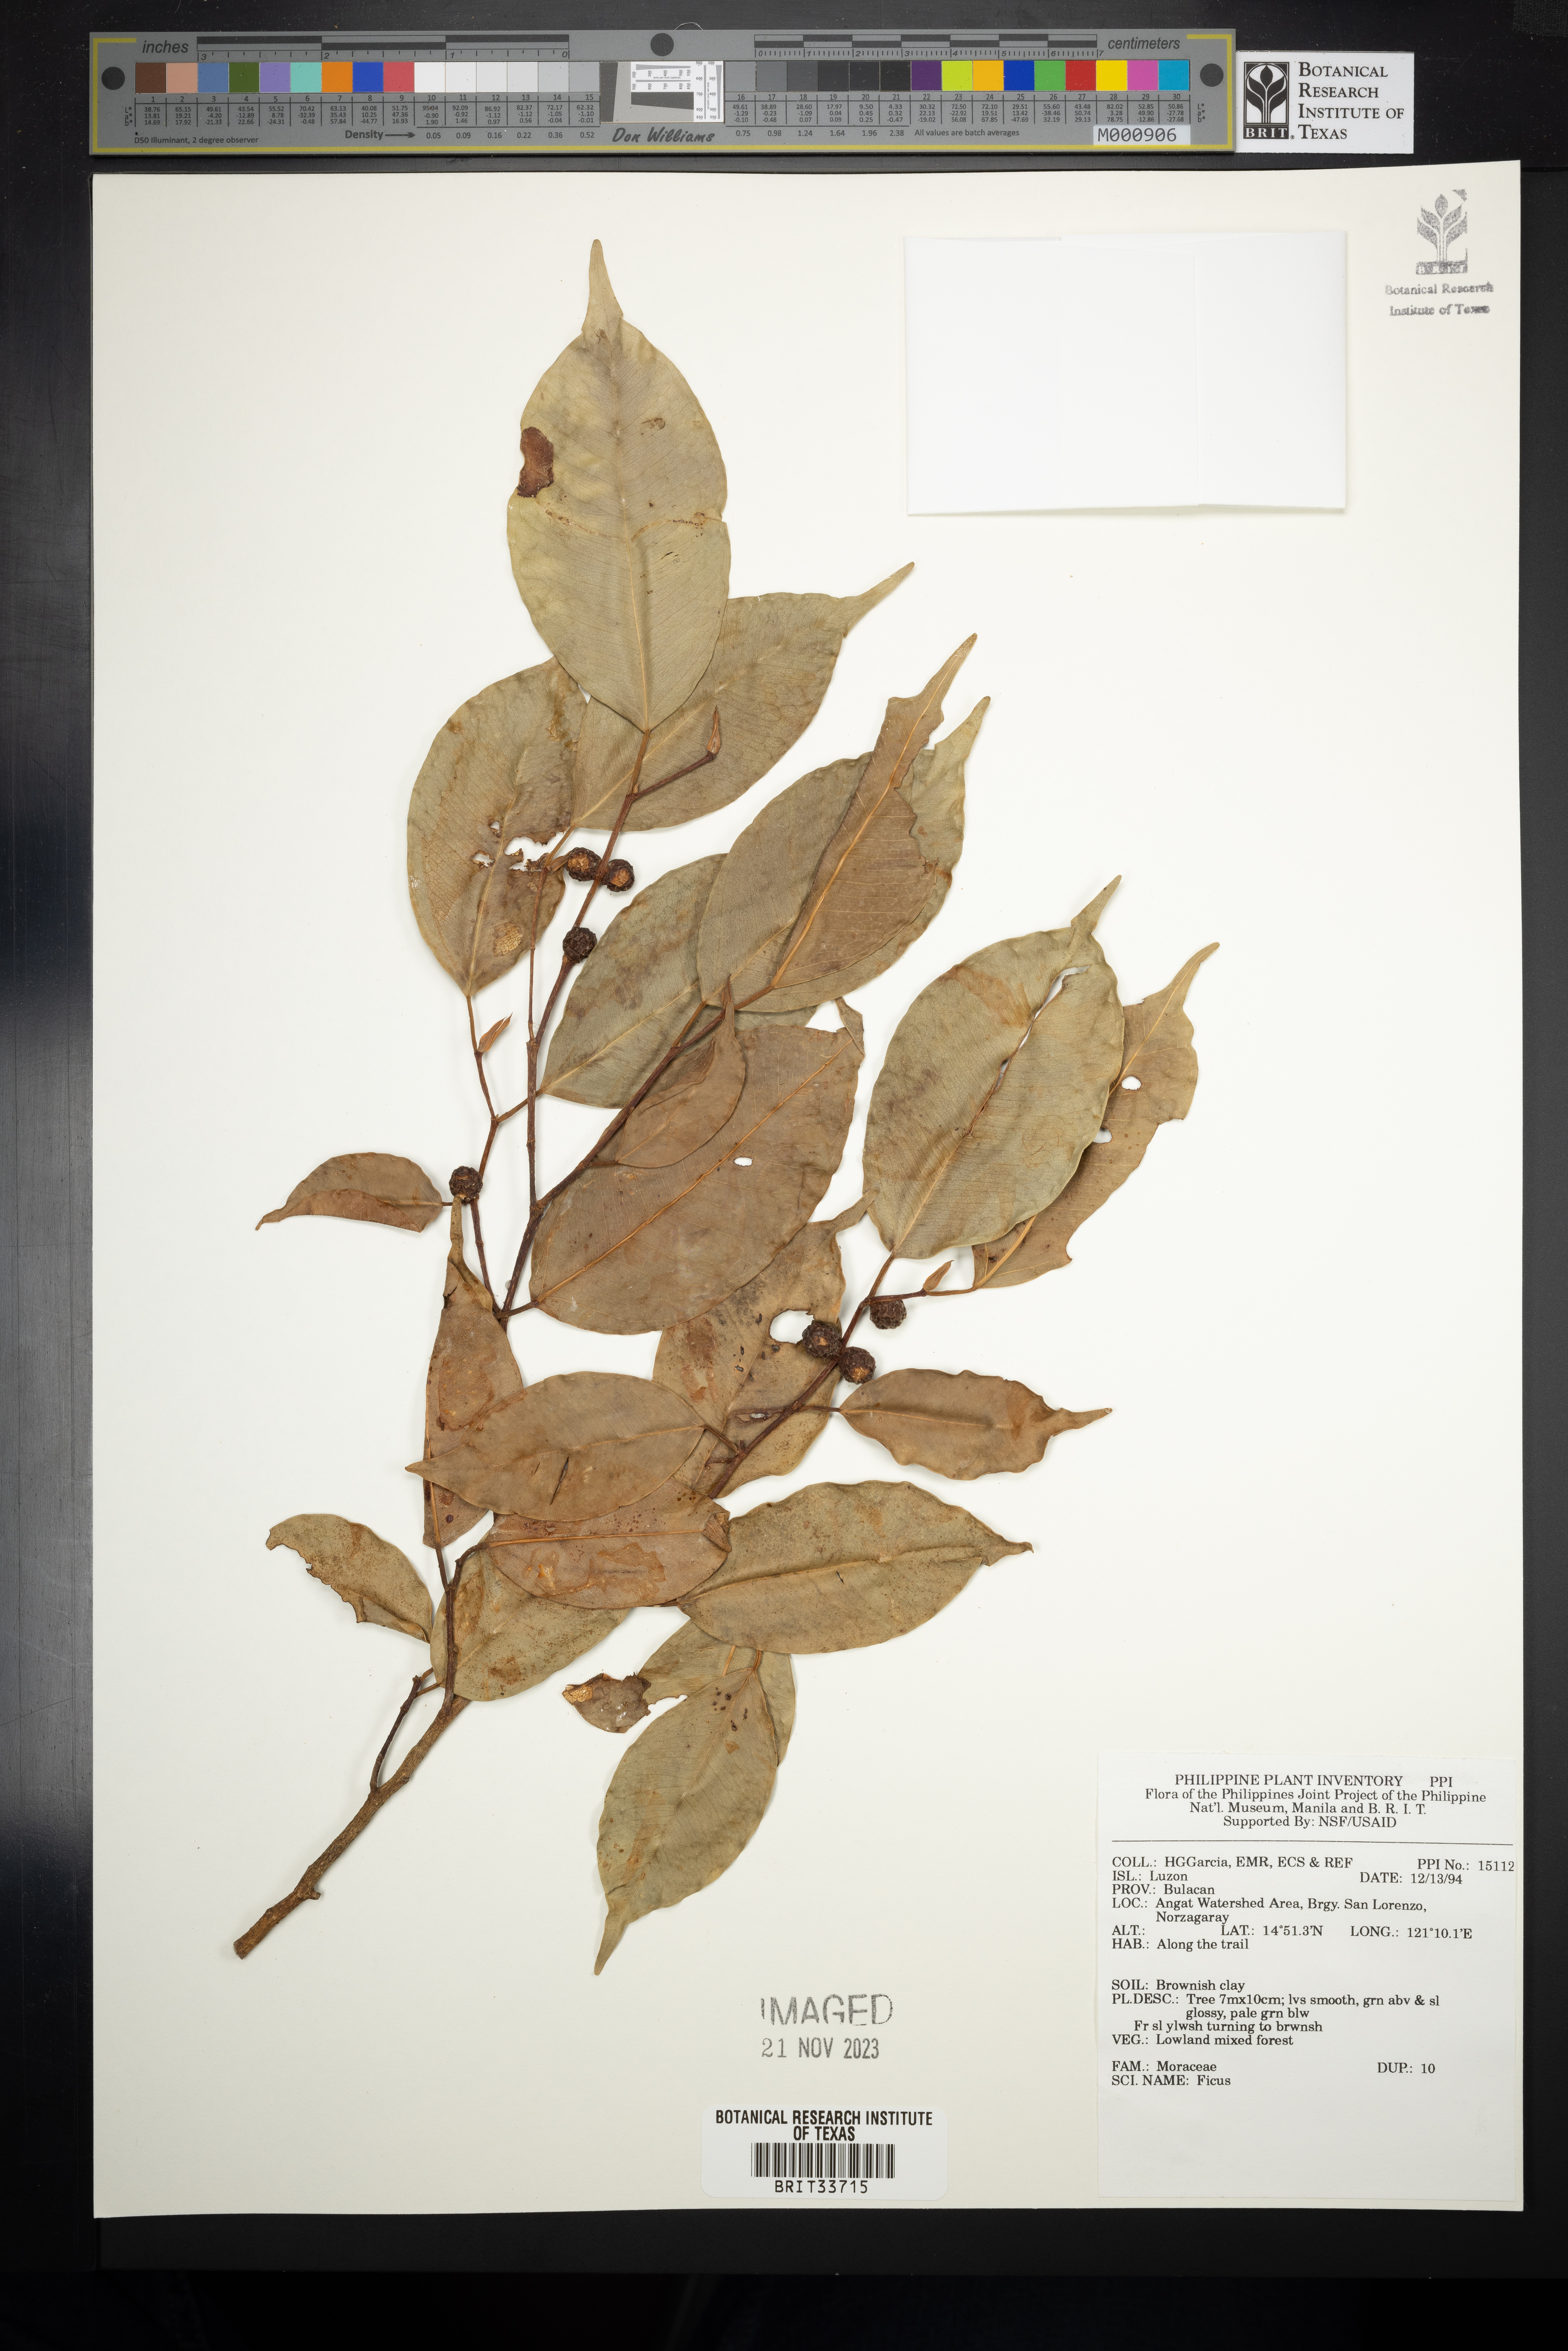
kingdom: Plantae
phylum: Tracheophyta
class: Magnoliopsida
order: Rosales
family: Moraceae
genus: Ficus
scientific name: Ficus
